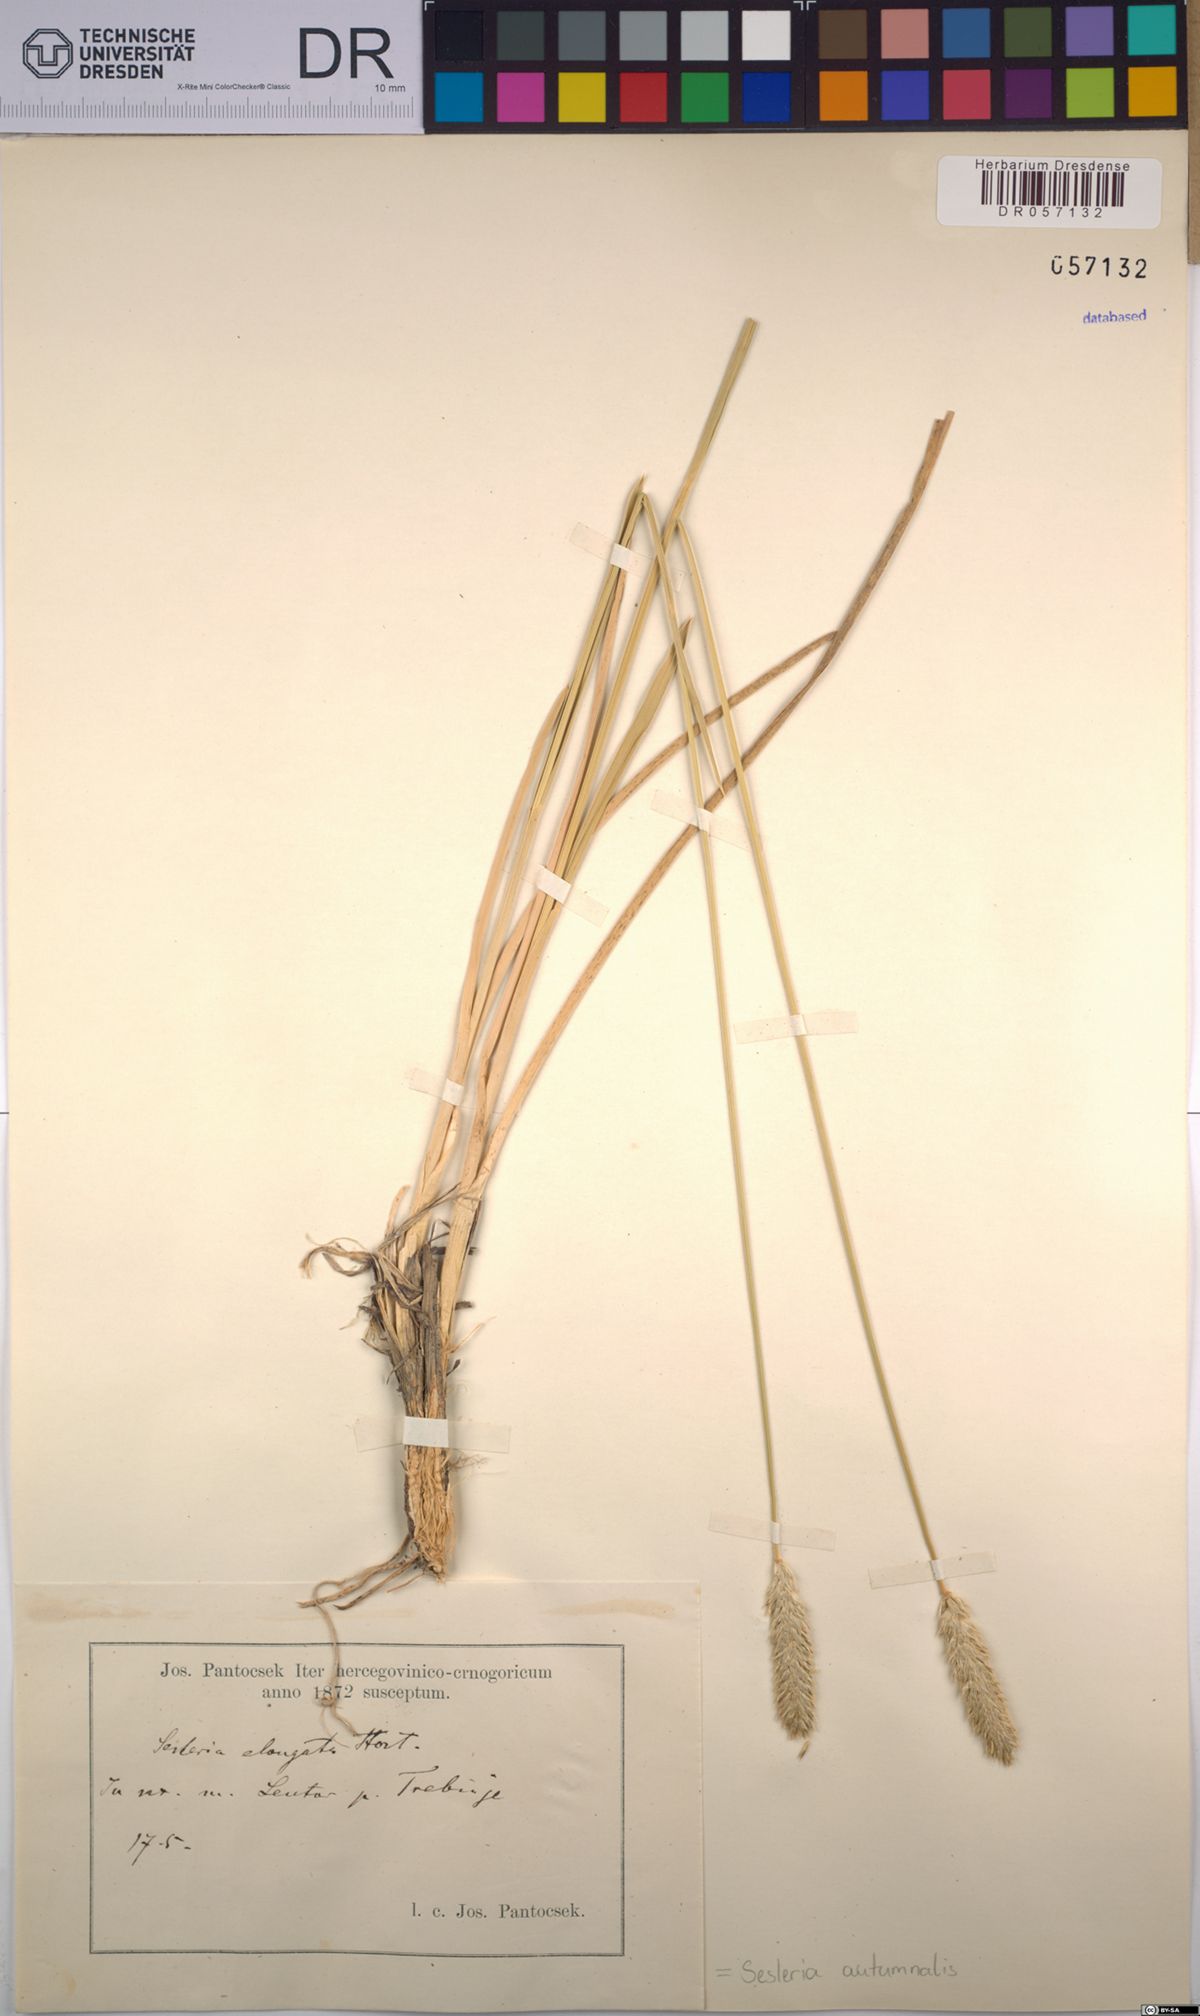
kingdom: Plantae
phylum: Tracheophyta
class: Liliopsida
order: Poales
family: Poaceae
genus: Sesleria
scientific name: Sesleria autumnalis
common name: Autumn moor grass
